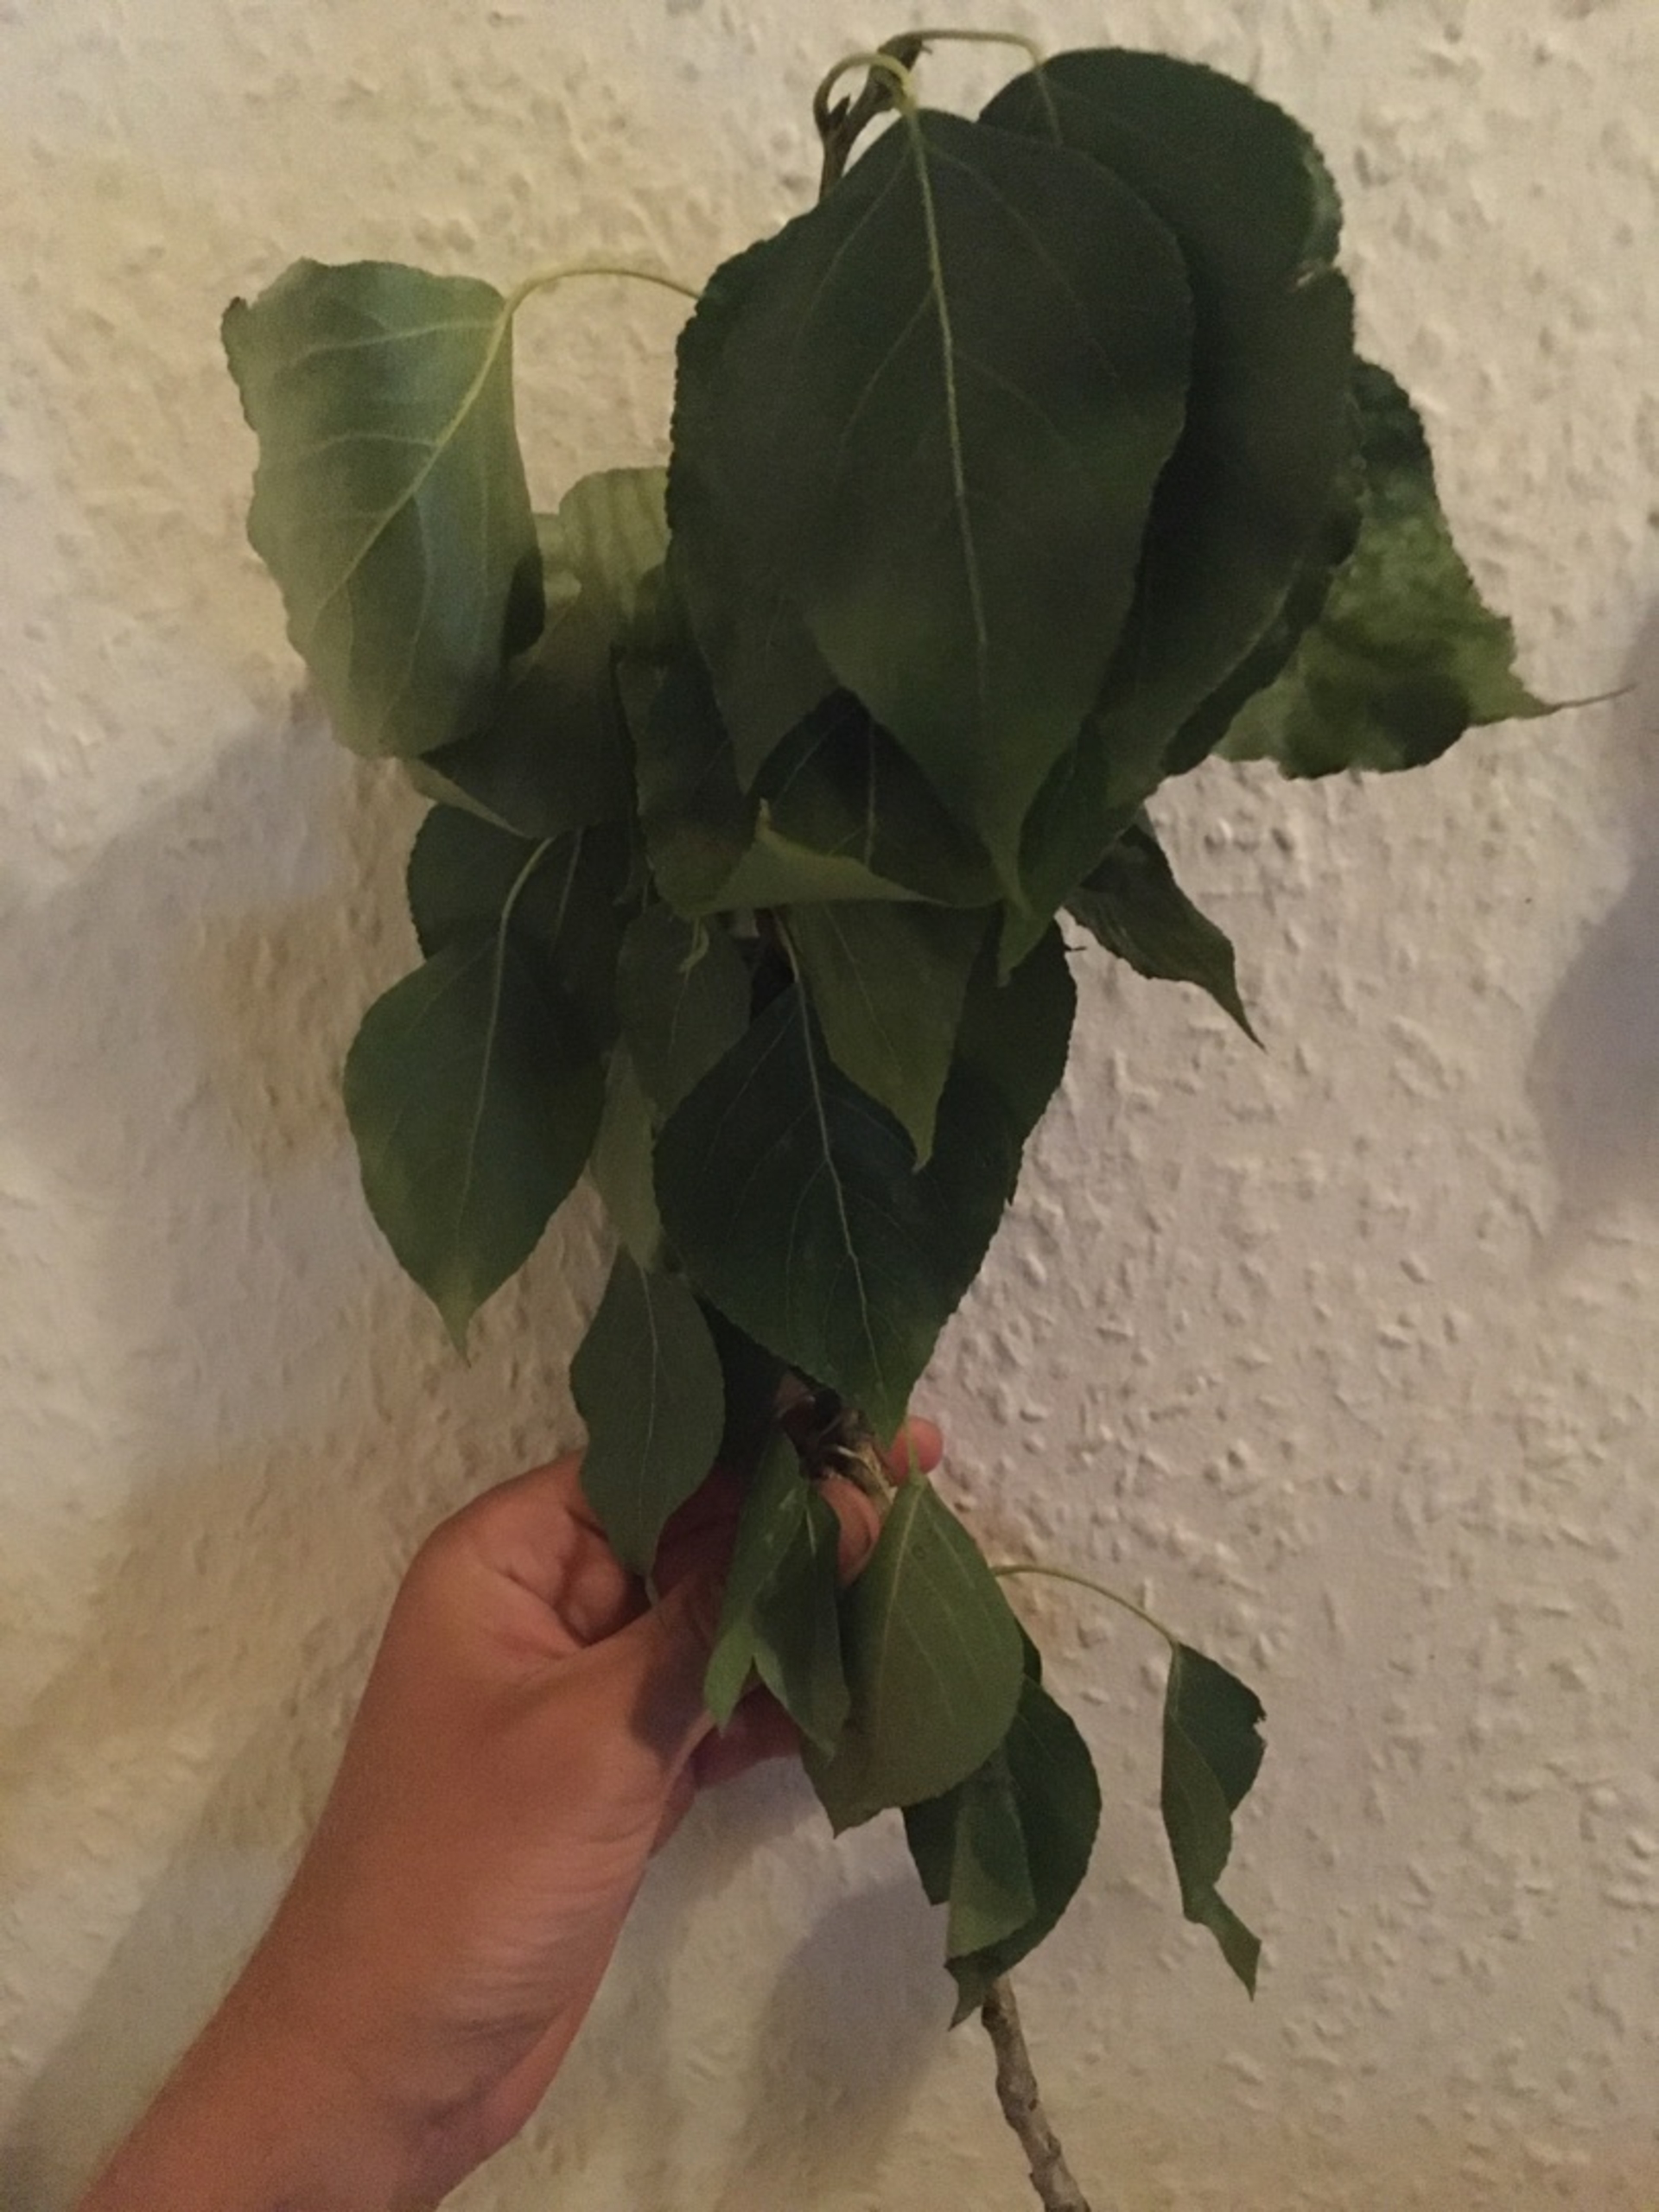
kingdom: Plantae
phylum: Tracheophyta
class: Magnoliopsida
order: Malpighiales
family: Salicaceae
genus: Populus
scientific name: Populus berolinensis
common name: Berliner-poppel
